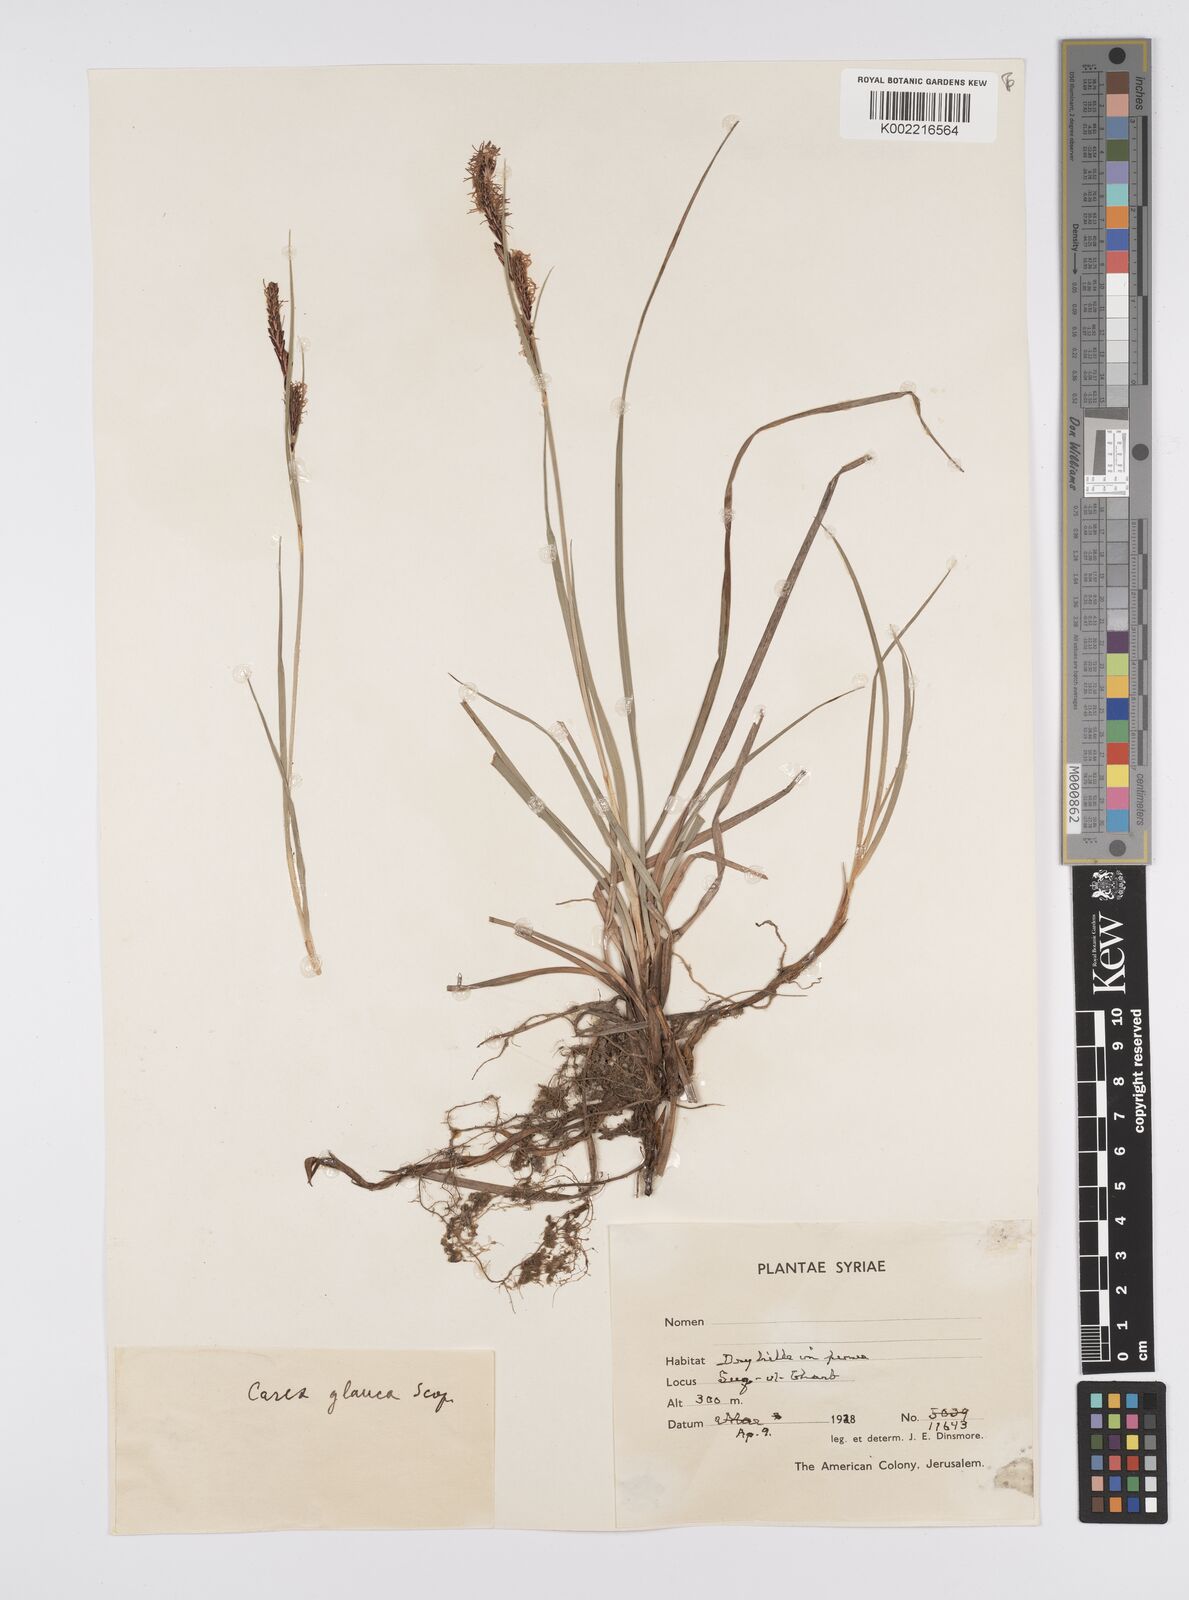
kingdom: Plantae
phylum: Tracheophyta
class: Liliopsida
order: Poales
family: Cyperaceae
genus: Carex
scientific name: Carex flacca
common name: Glaucous sedge
